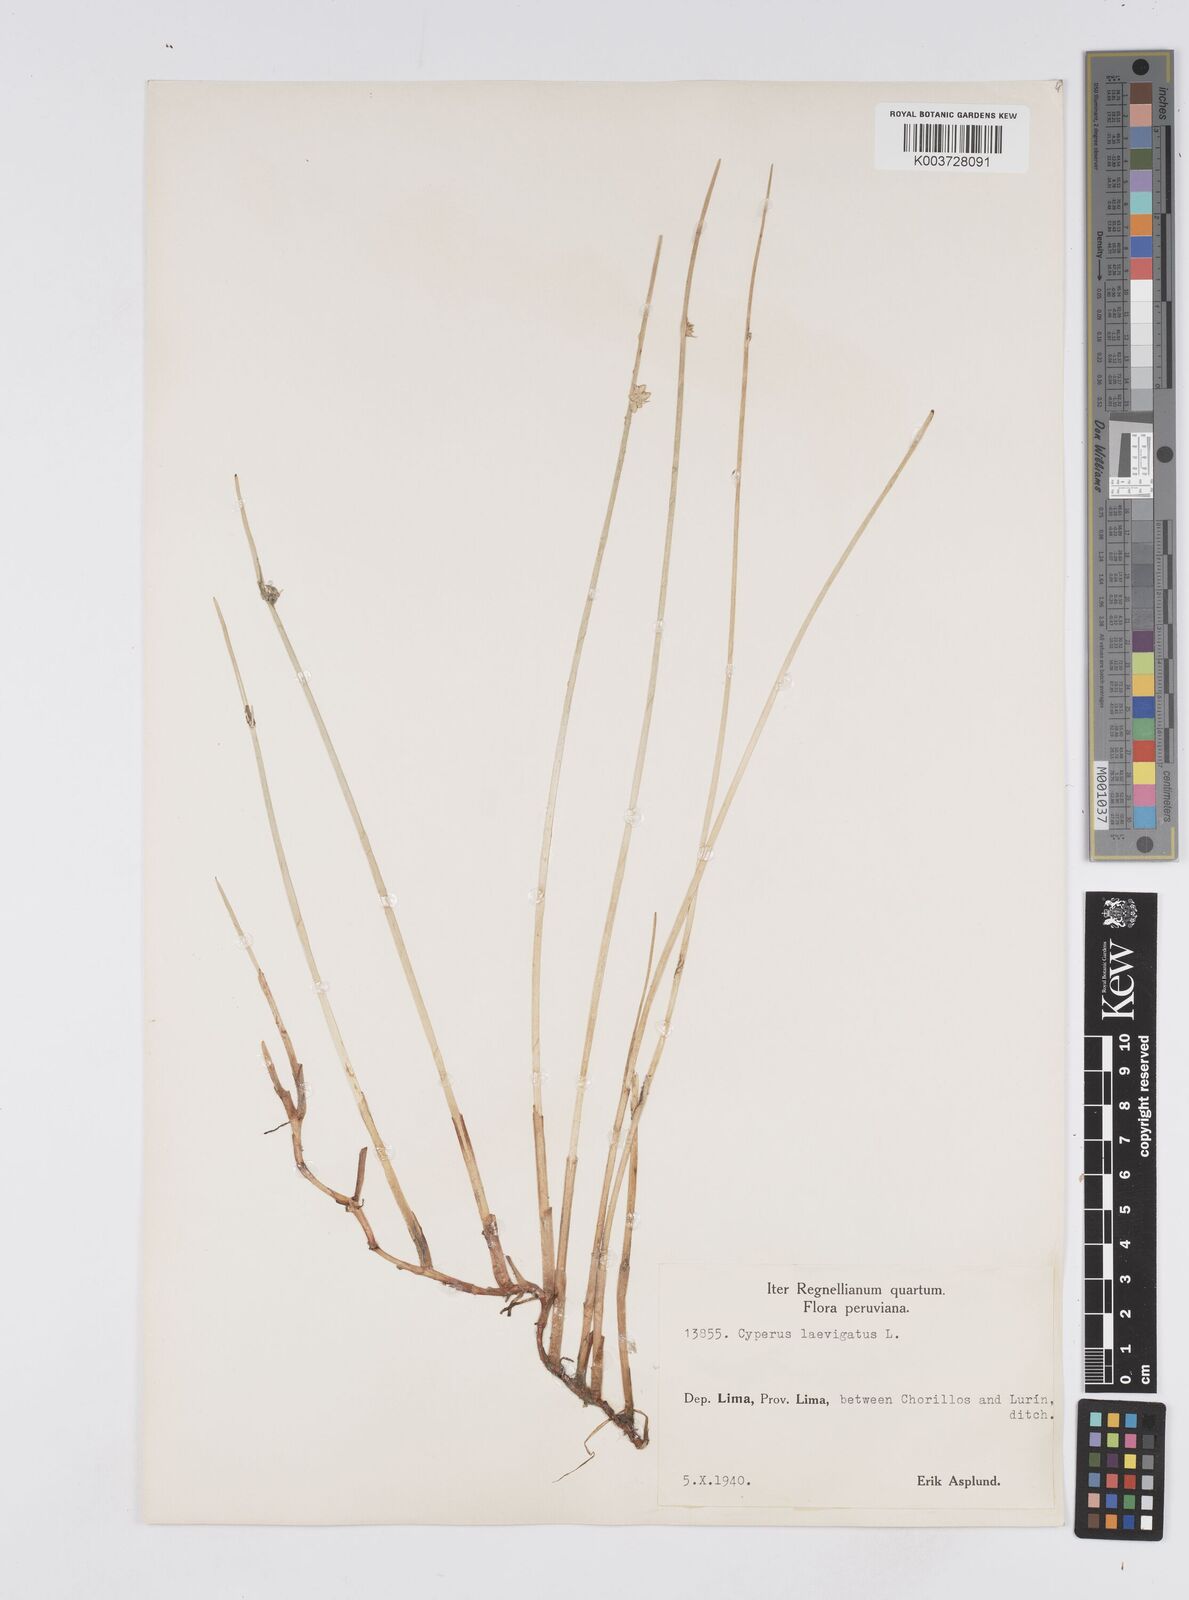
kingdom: Plantae
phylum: Tracheophyta
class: Liliopsida
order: Poales
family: Cyperaceae
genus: Cyperus
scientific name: Cyperus laevigatus
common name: Smooth flat sedge
